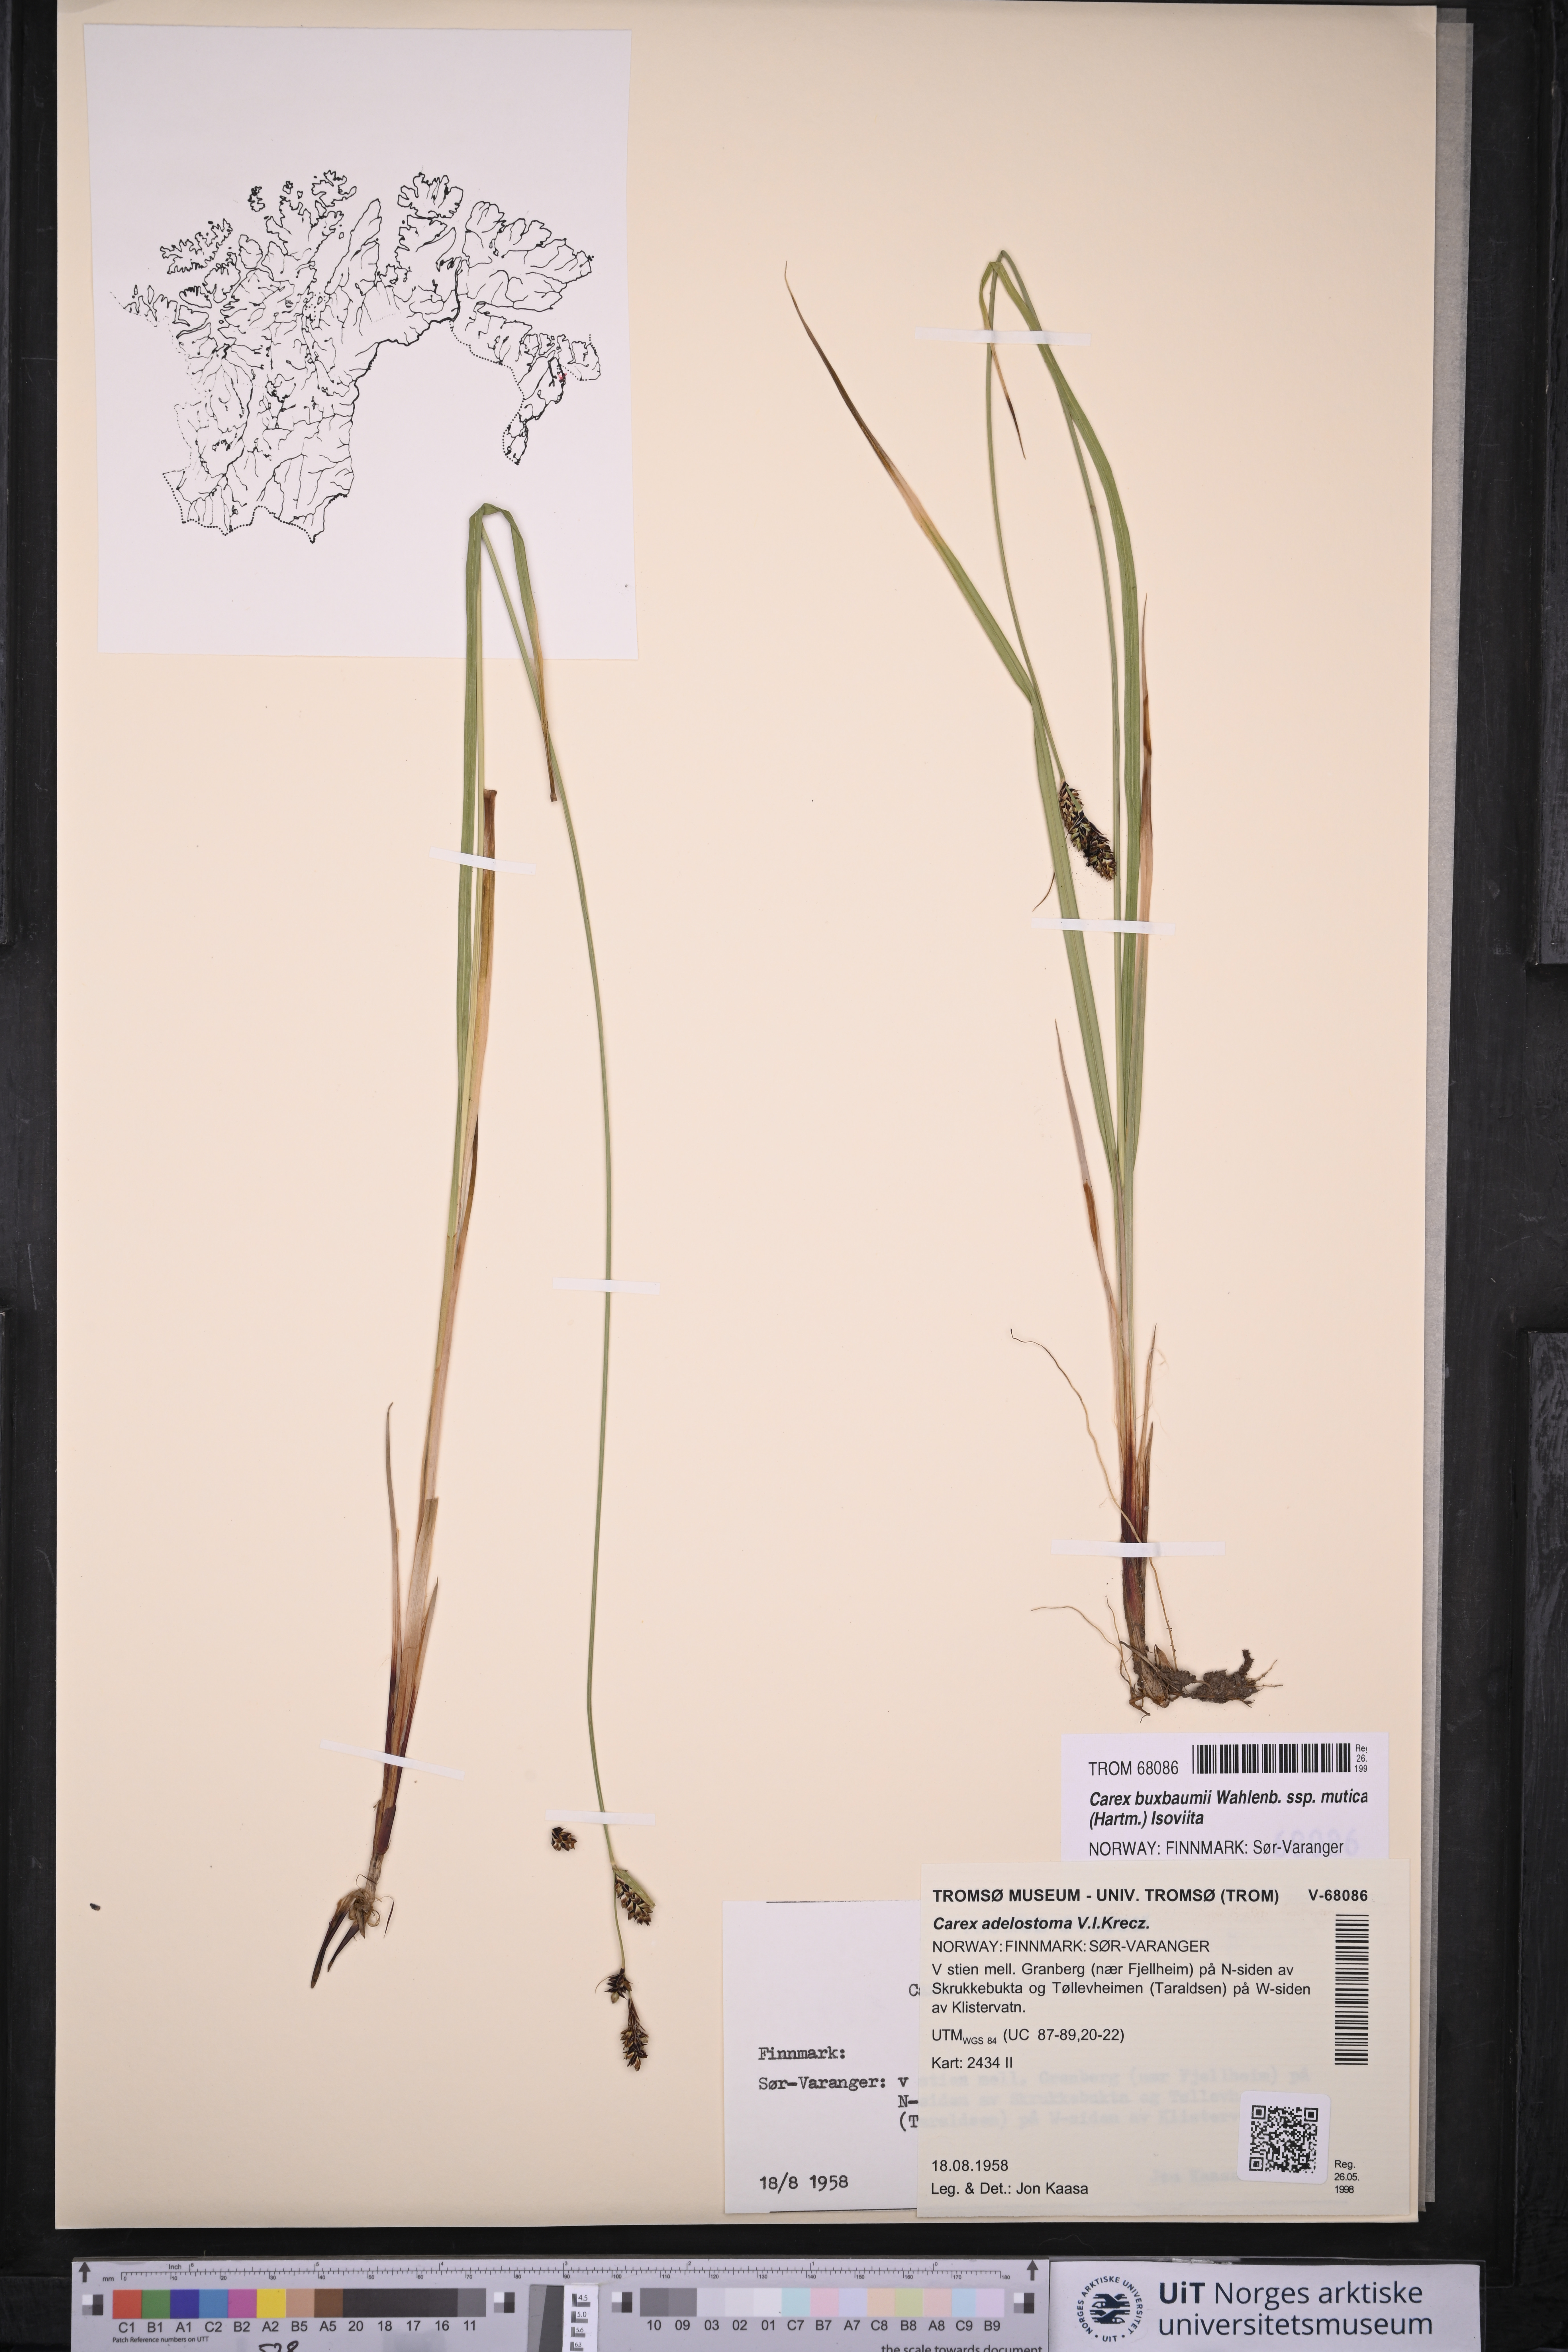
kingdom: Plantae
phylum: Tracheophyta
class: Liliopsida
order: Poales
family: Cyperaceae
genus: Carex
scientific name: Carex adelostoma
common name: Circumpolar sedge
